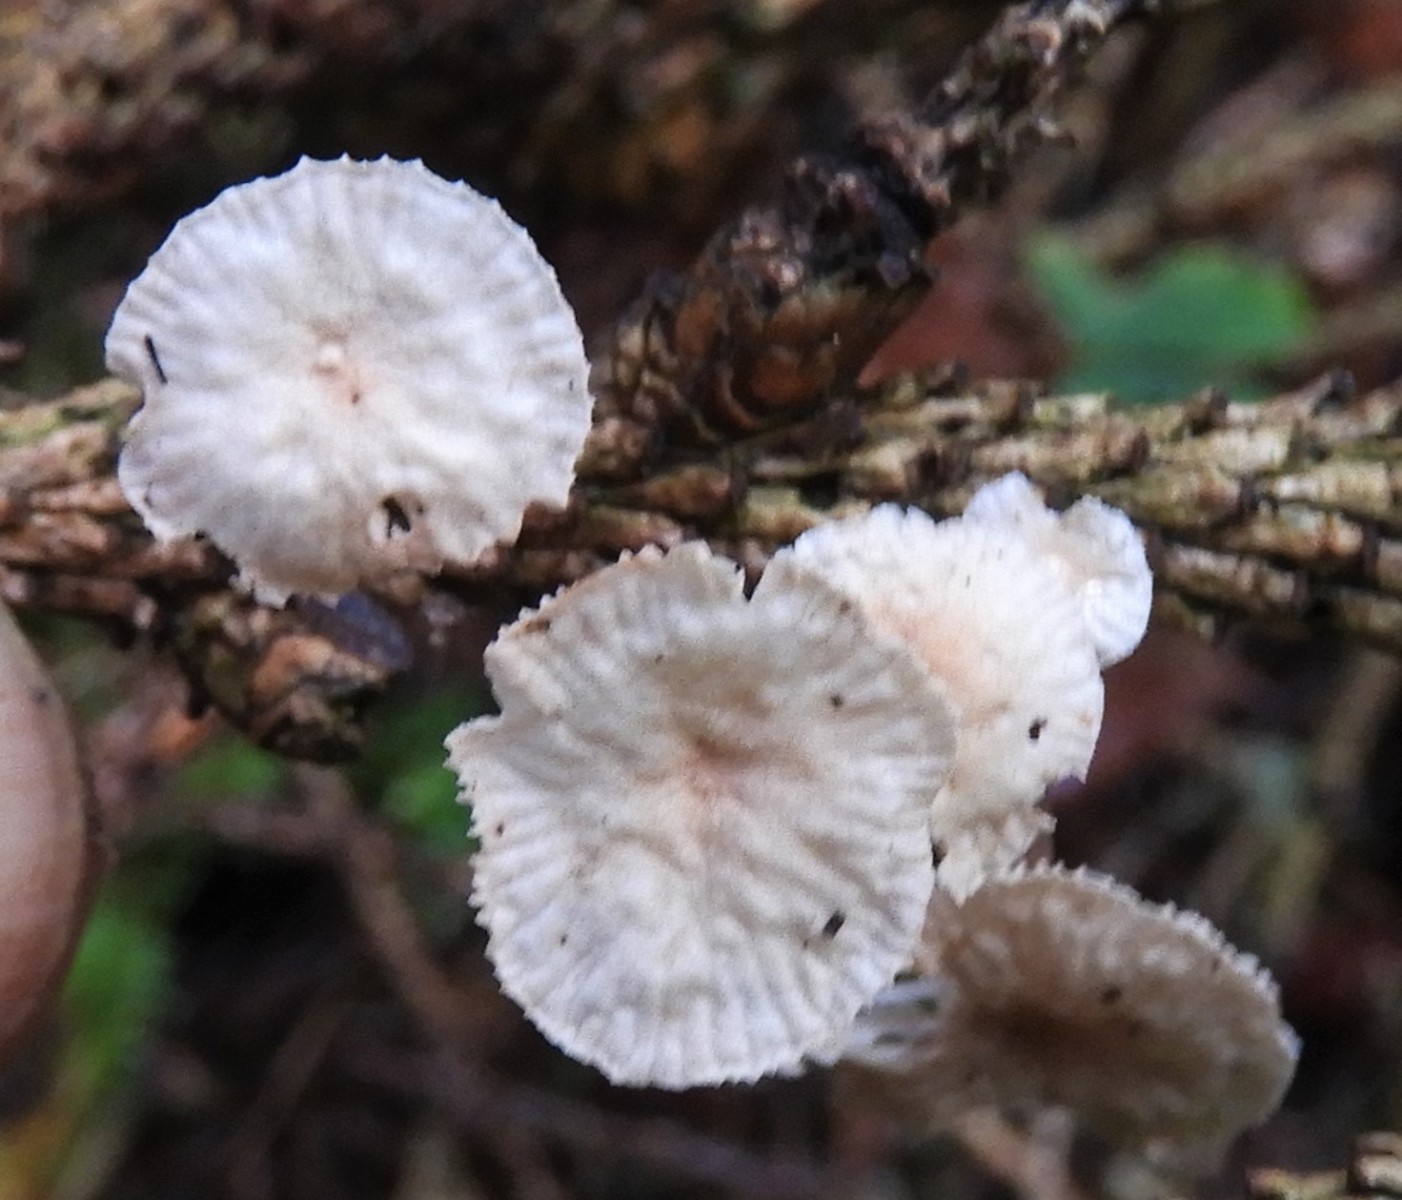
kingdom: Fungi
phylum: Basidiomycota
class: Agaricomycetes
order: Agaricales
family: Omphalotaceae
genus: Collybiopsis
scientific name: Collybiopsis ramealis
